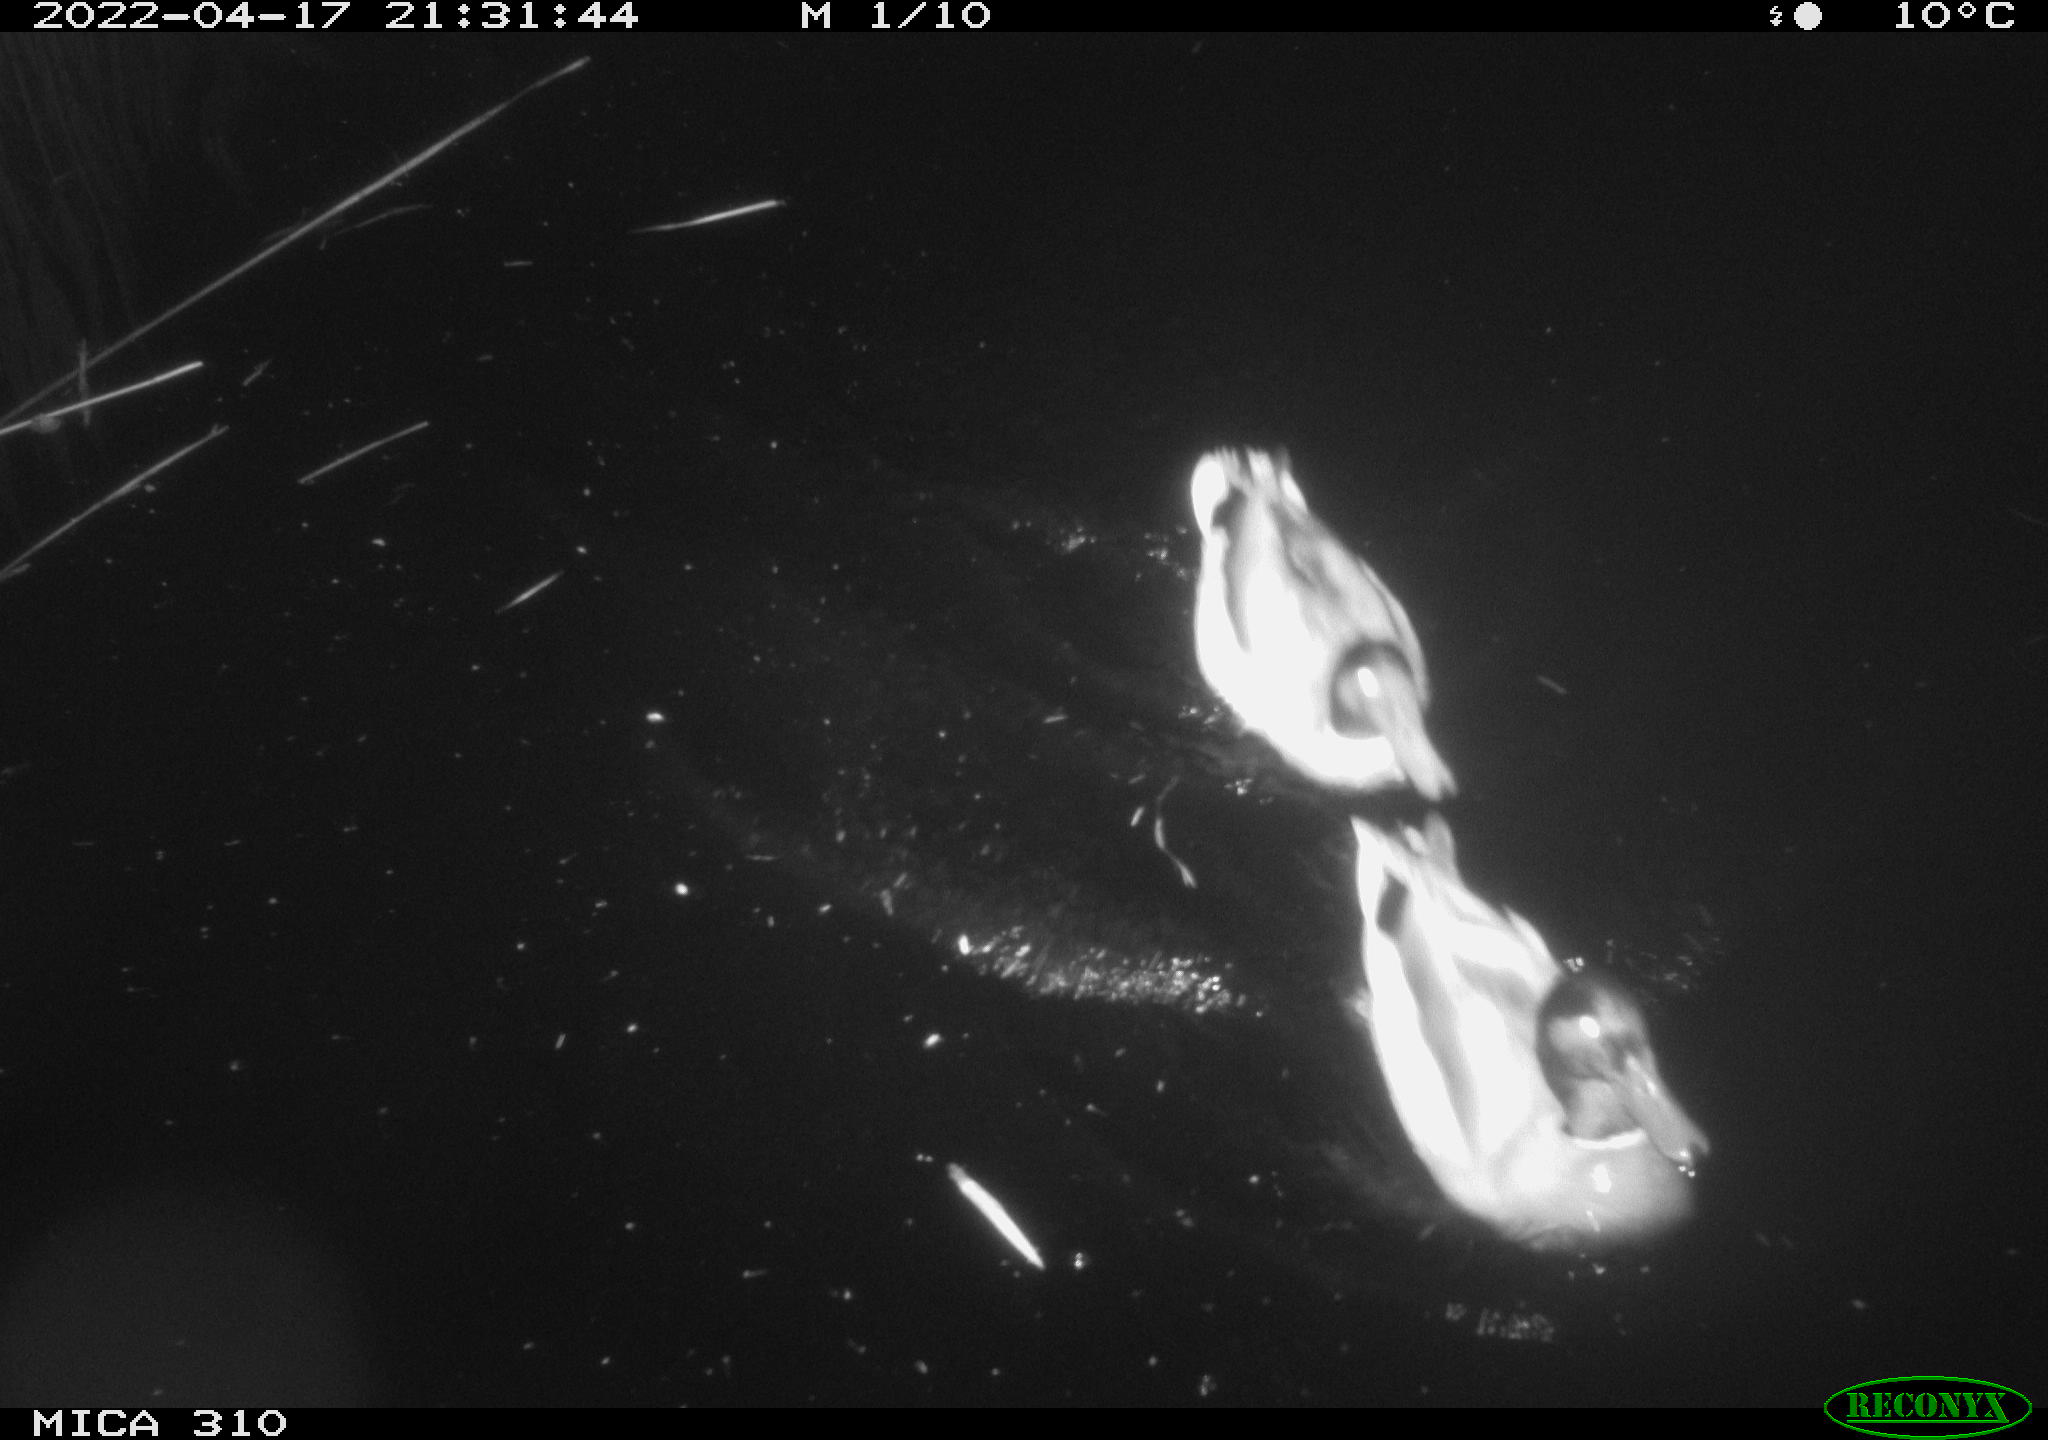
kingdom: Animalia
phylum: Chordata
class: Aves
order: Anseriformes
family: Anatidae
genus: Anas
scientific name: Anas platyrhynchos
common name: Mallard
